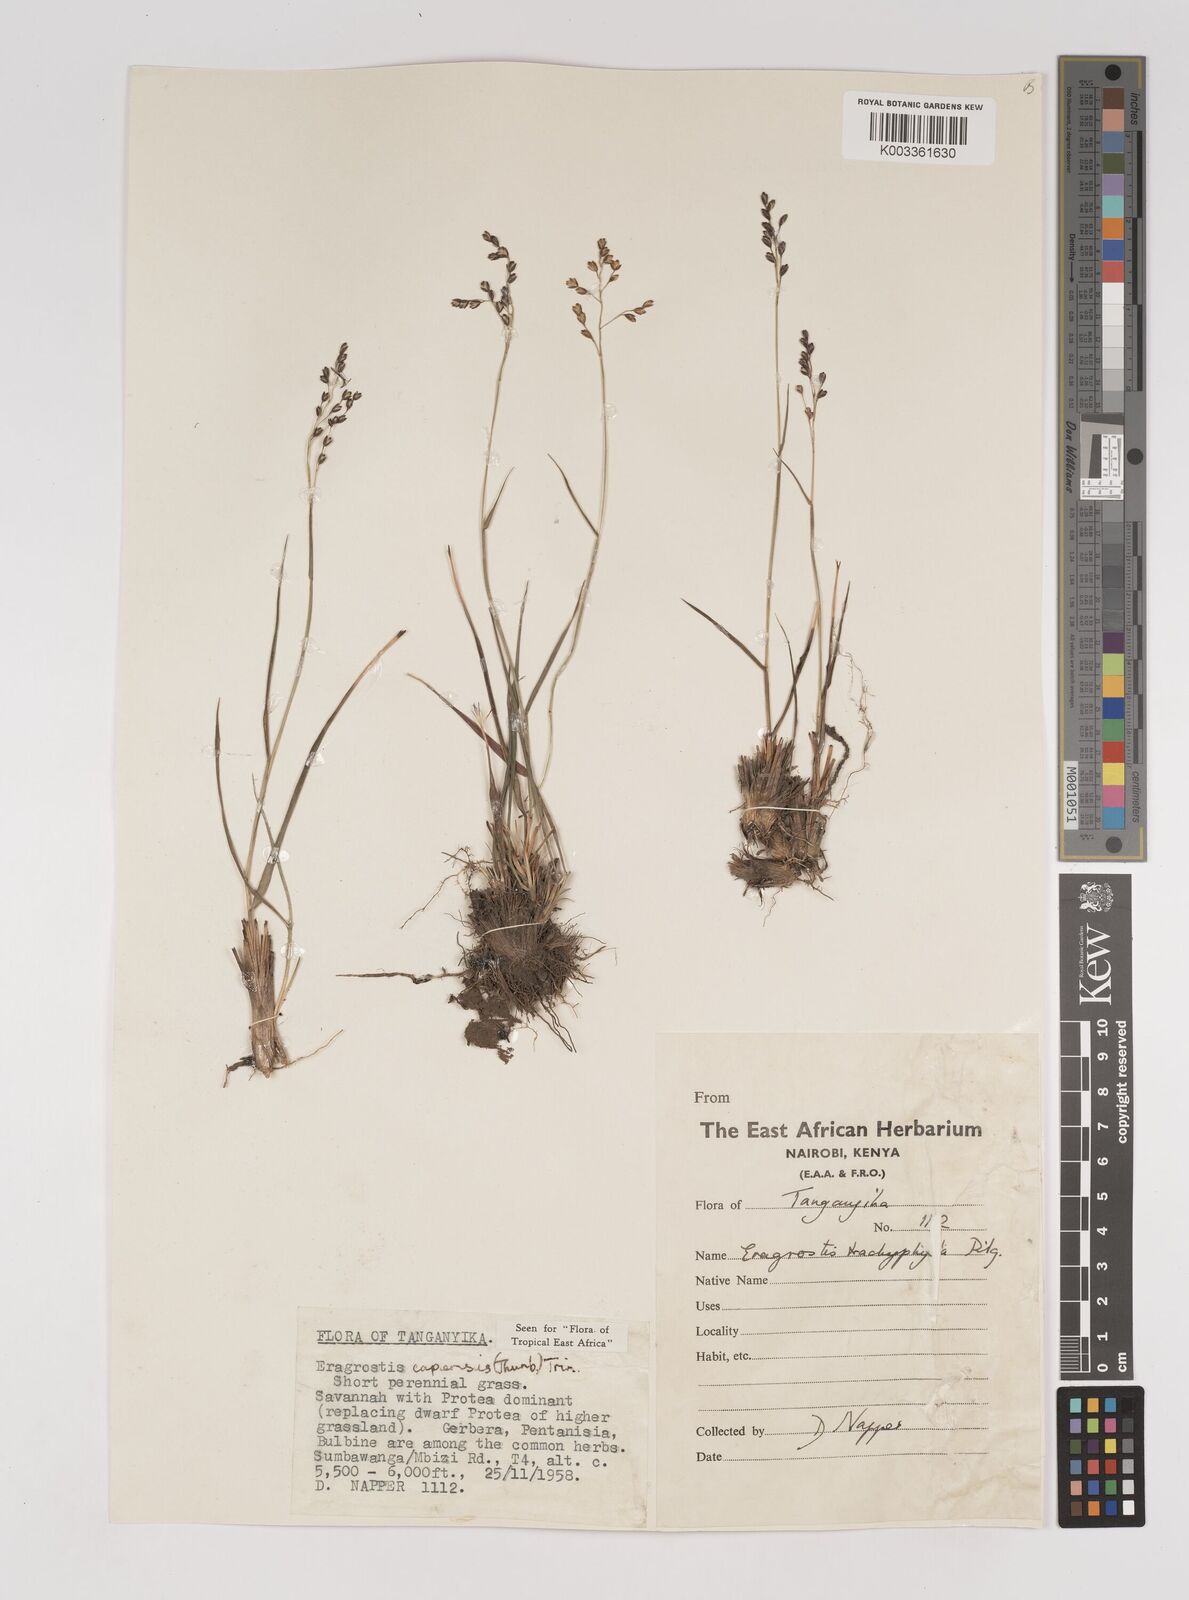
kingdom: Plantae
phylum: Tracheophyta
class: Liliopsida
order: Poales
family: Poaceae
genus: Eragrostis
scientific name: Eragrostis capensis
